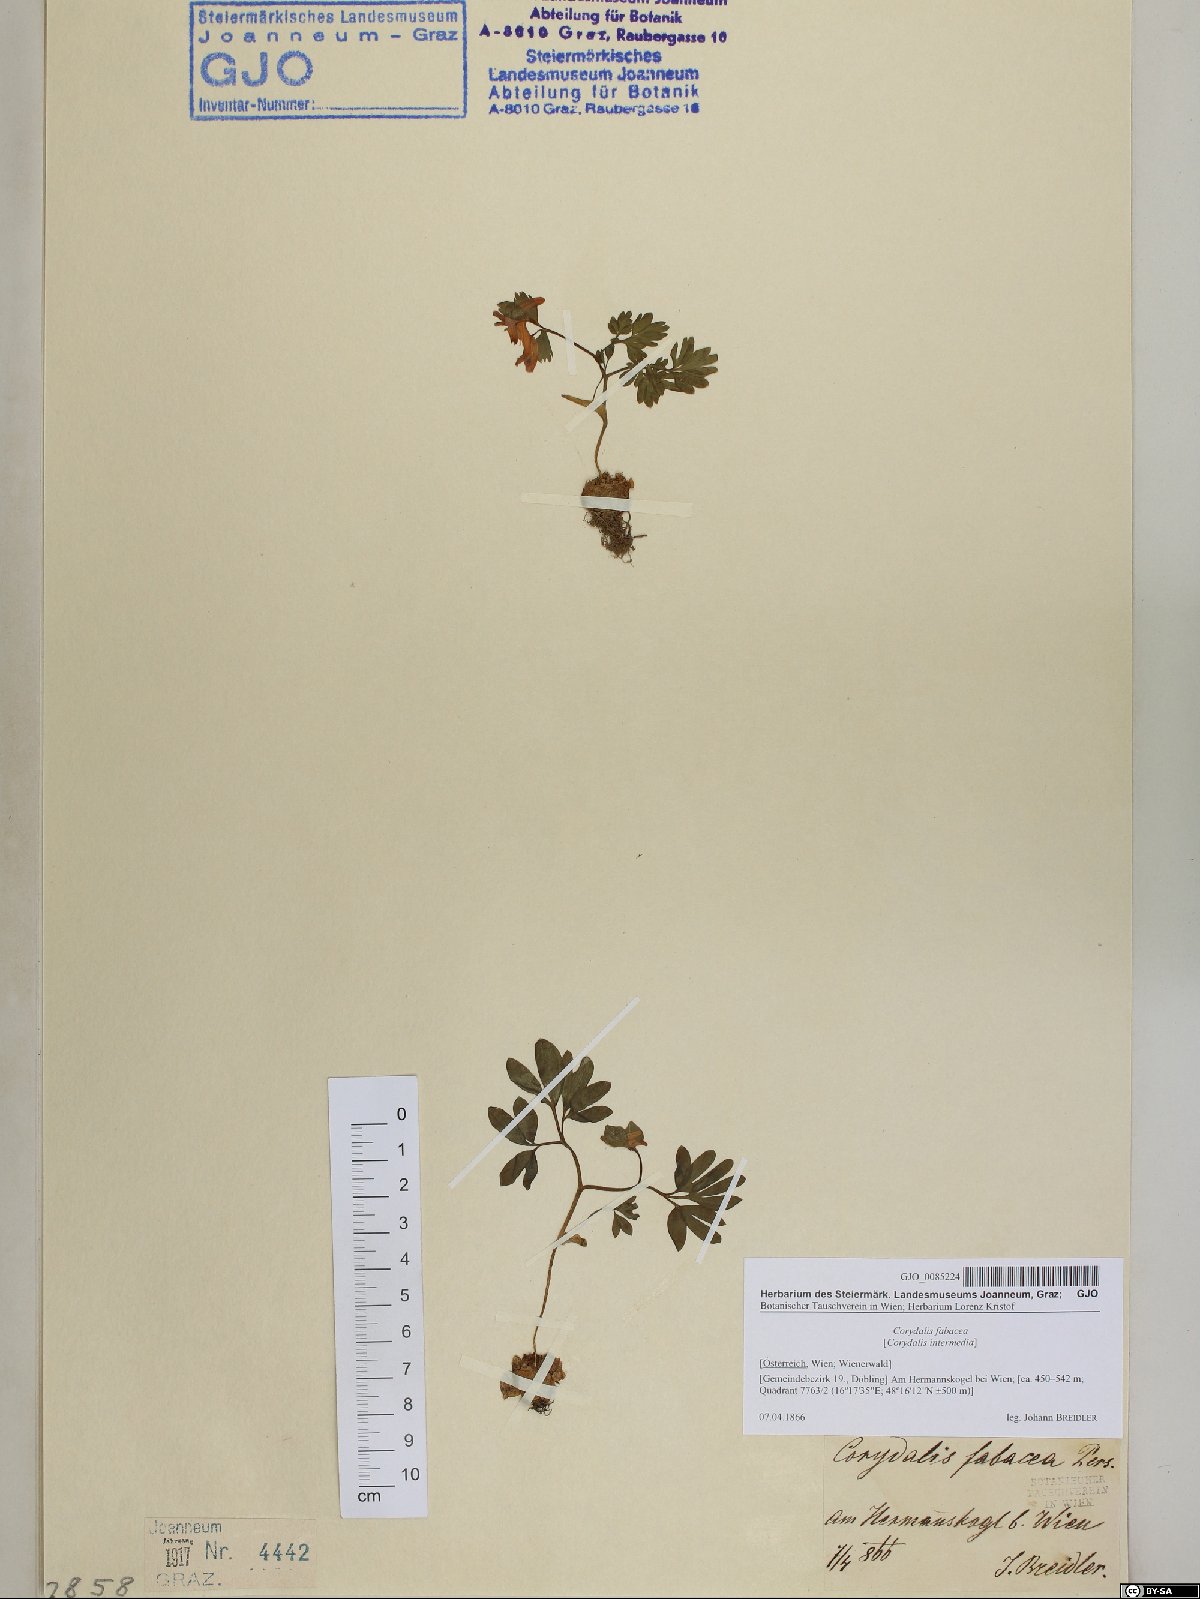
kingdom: Plantae
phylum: Tracheophyta
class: Magnoliopsida
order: Ranunculales
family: Papaveraceae
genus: Corydalis
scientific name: Corydalis intermedia
